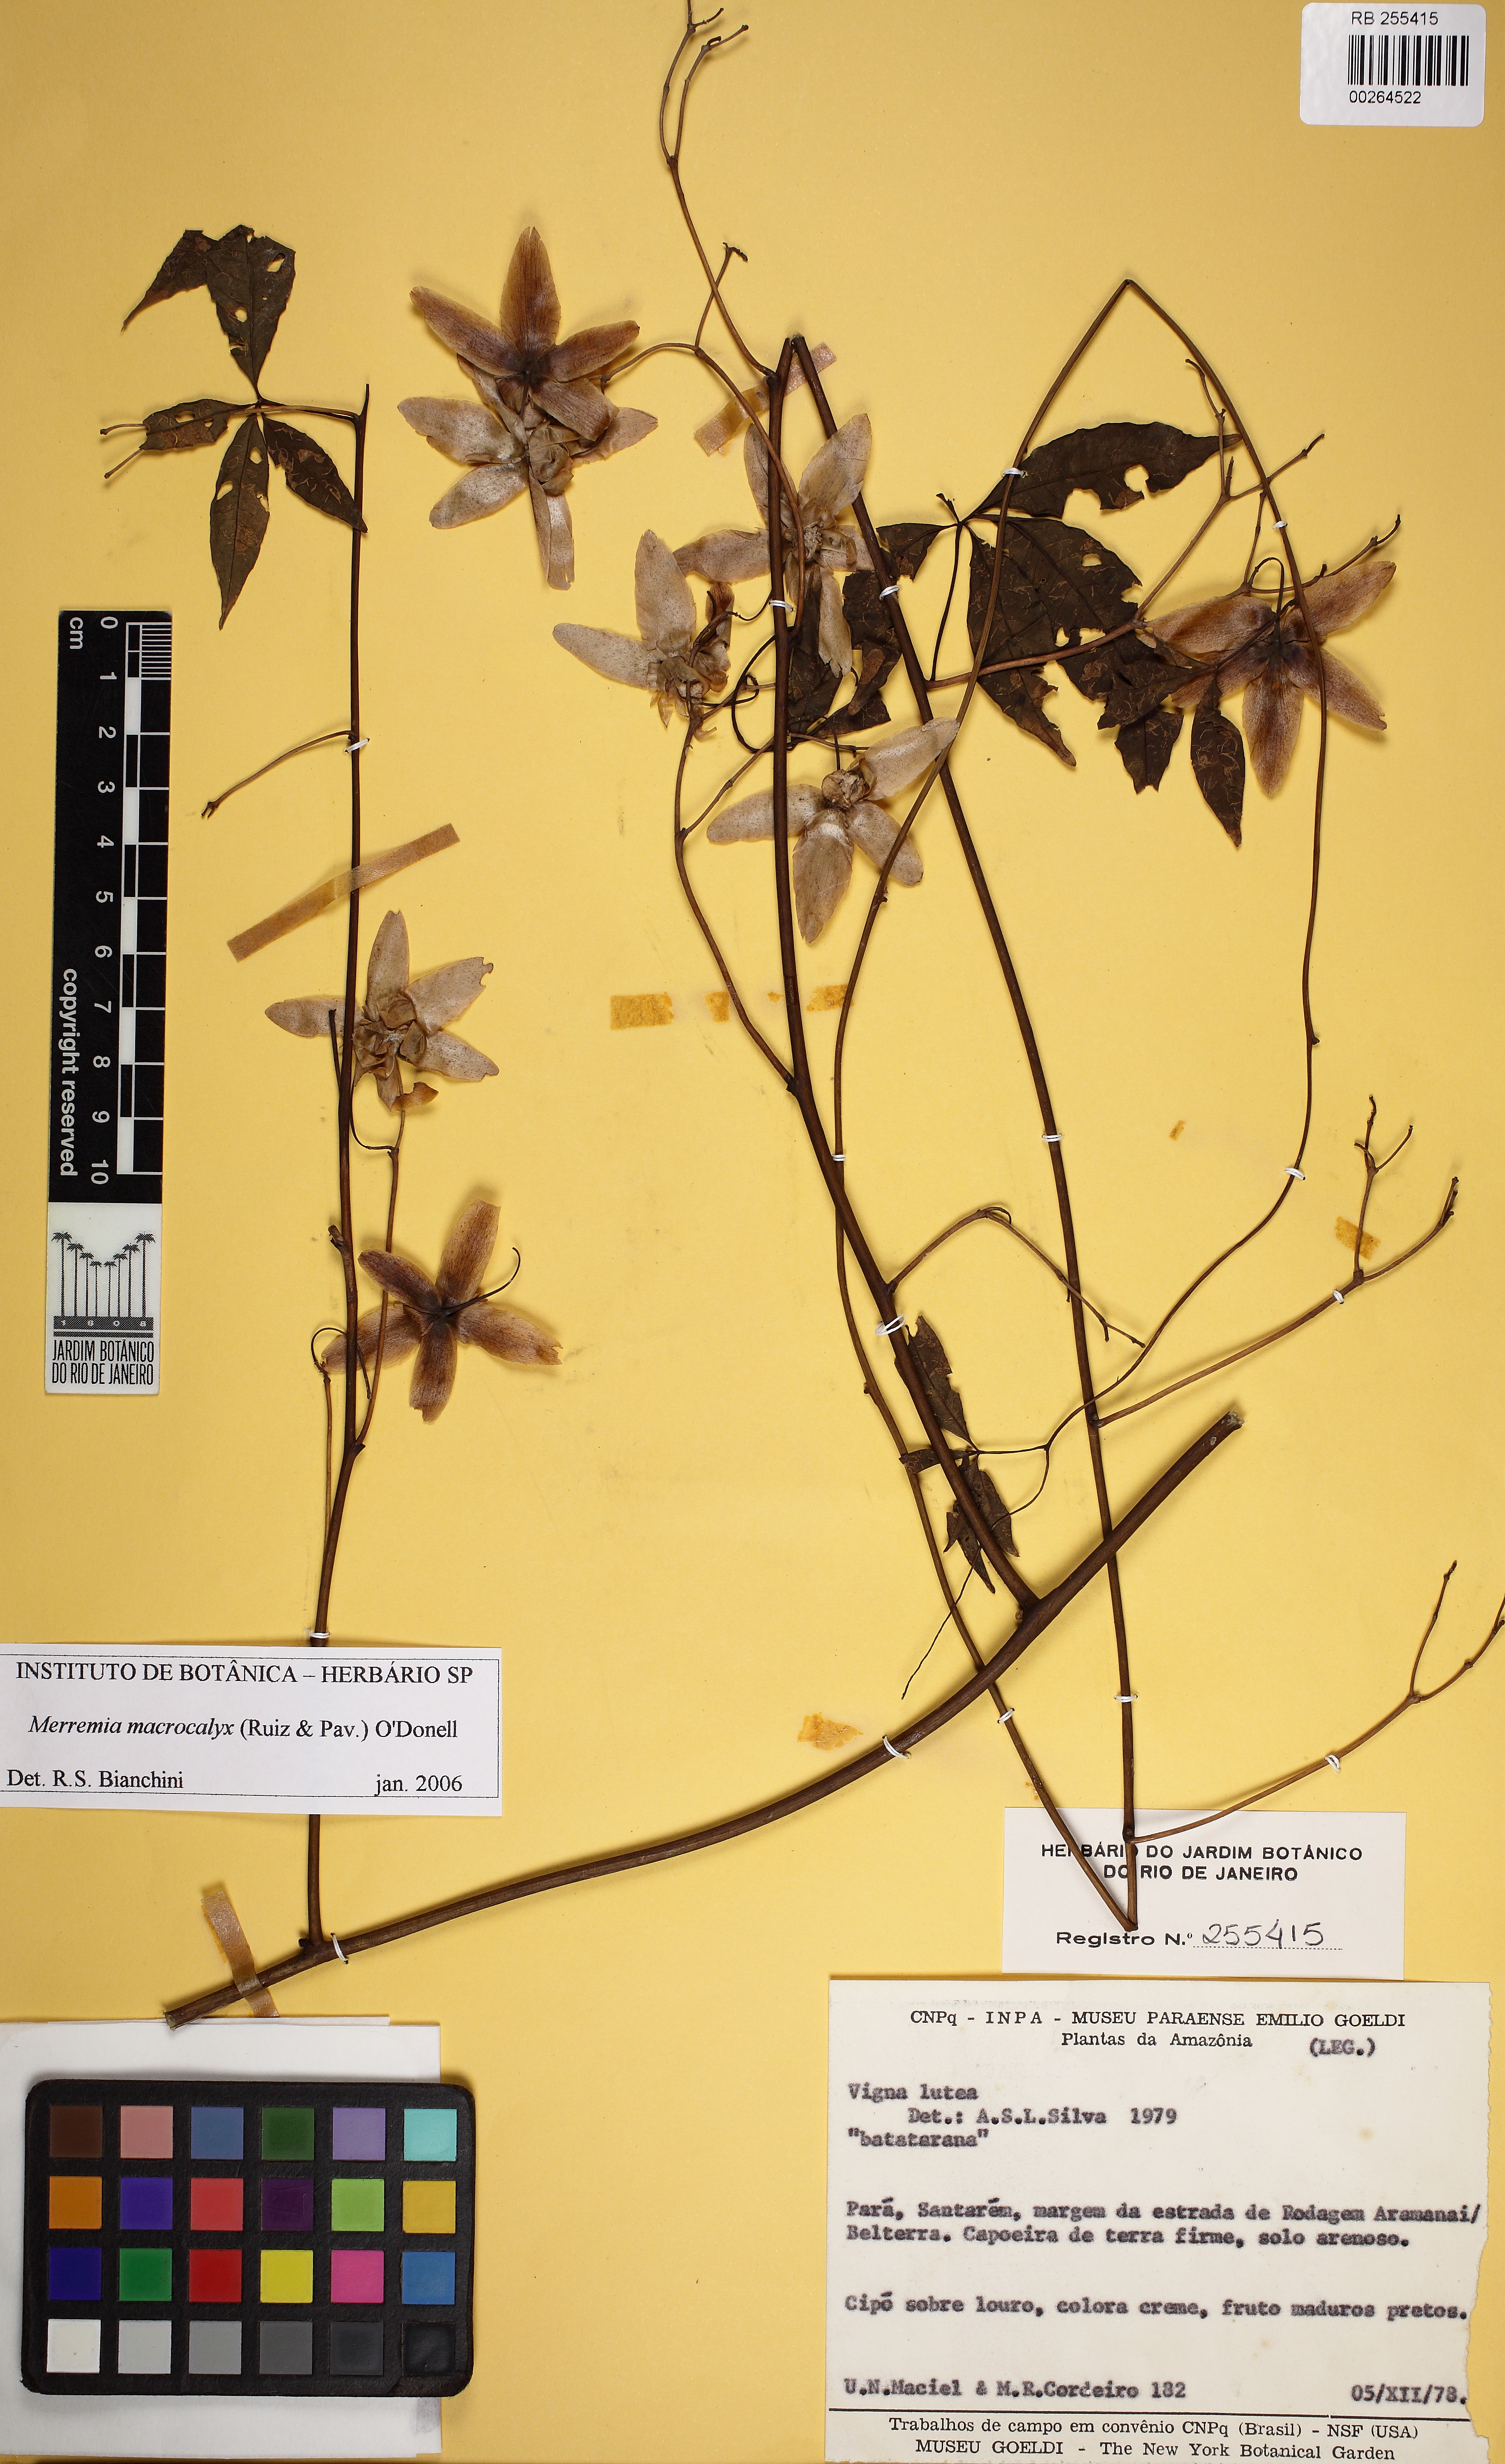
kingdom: Plantae
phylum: Tracheophyta
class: Magnoliopsida
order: Solanales
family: Convolvulaceae
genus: Distimake
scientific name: Distimake macrocalyx
